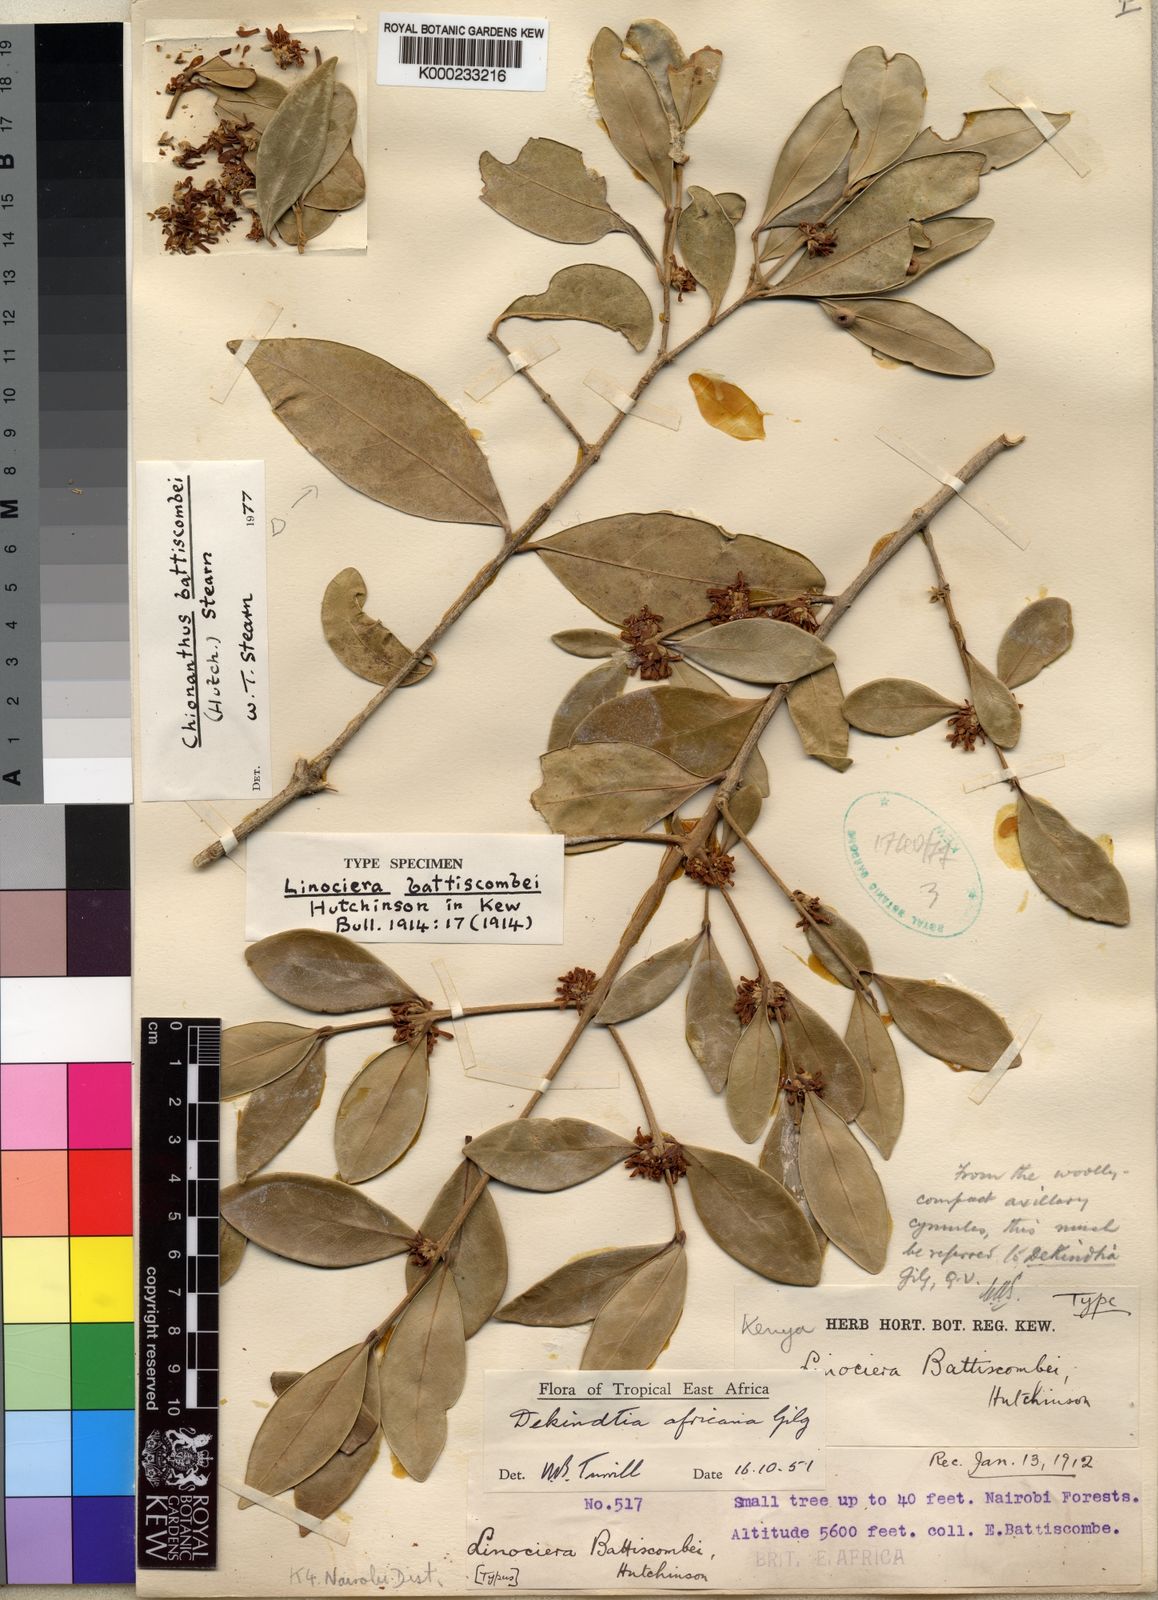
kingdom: Plantae
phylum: Tracheophyta
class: Magnoliopsida
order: Lamiales
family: Oleaceae
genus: Noronhia
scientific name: Noronhia battiscombei
